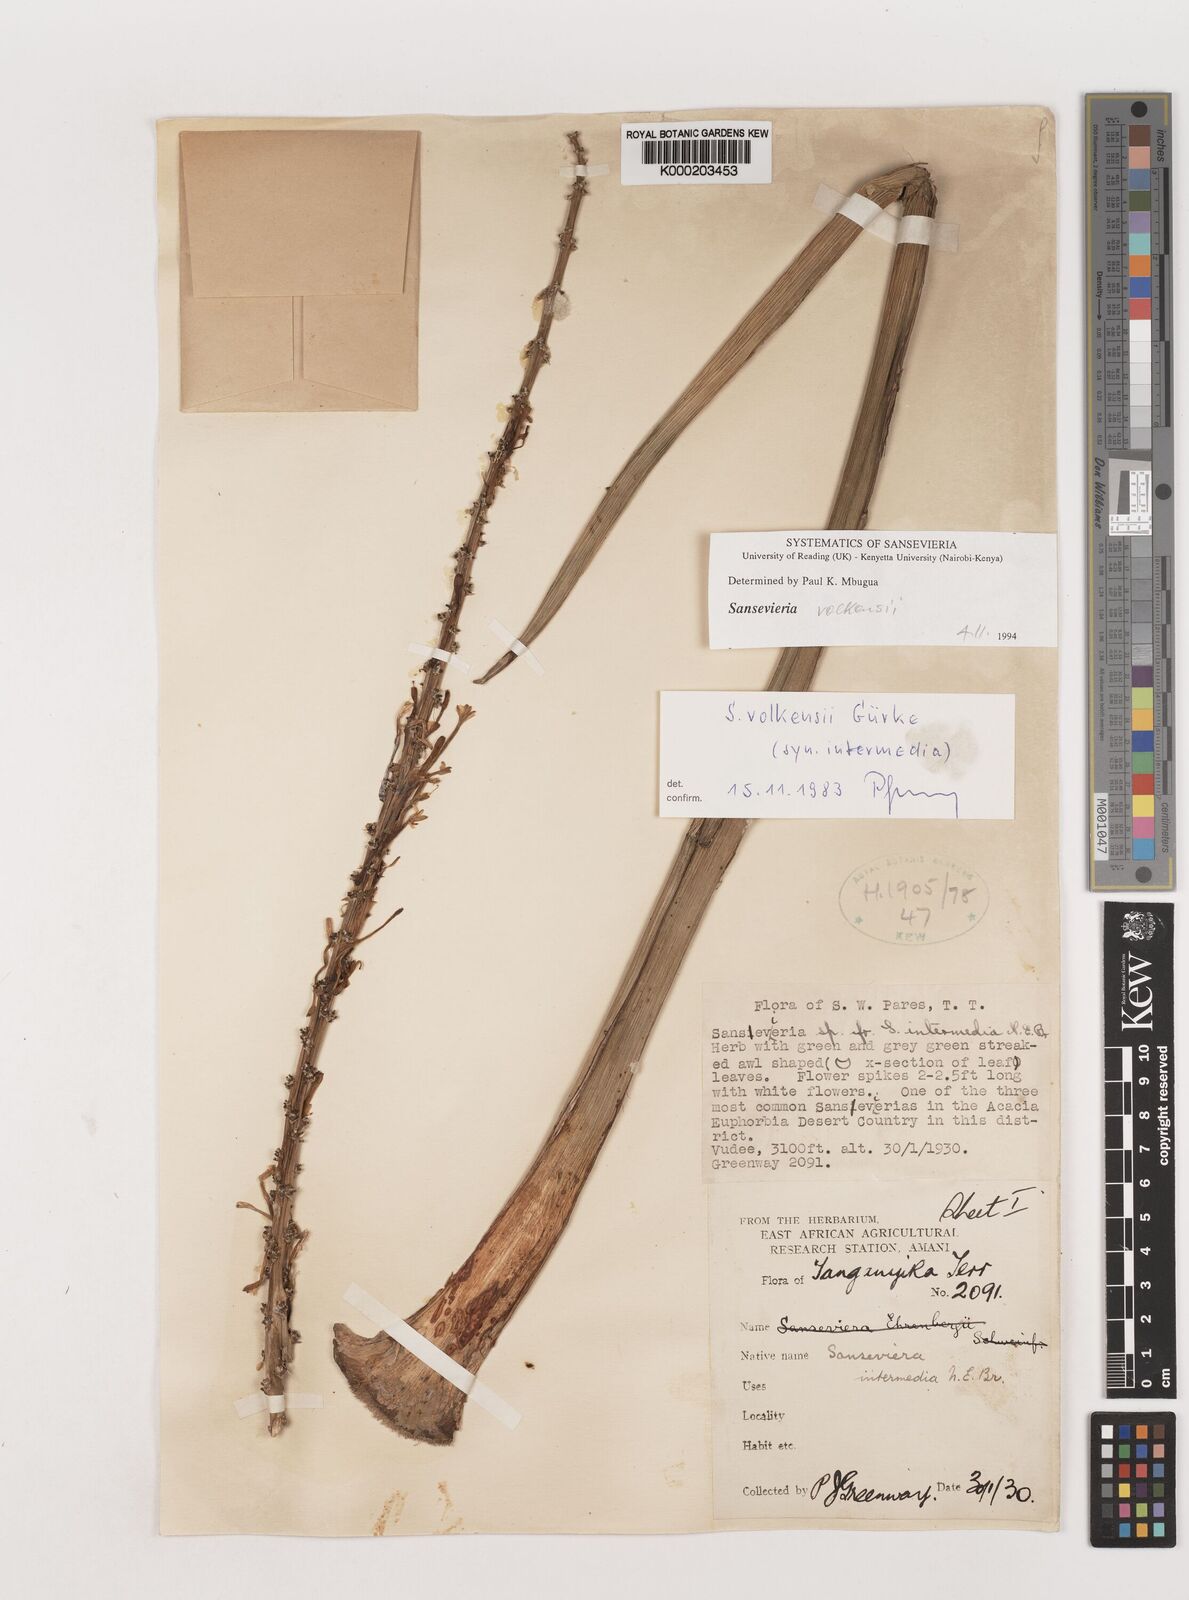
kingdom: Plantae
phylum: Tracheophyta
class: Liliopsida
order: Asparagales
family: Asparagaceae
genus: Dracaena
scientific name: Dracaena volkensii
